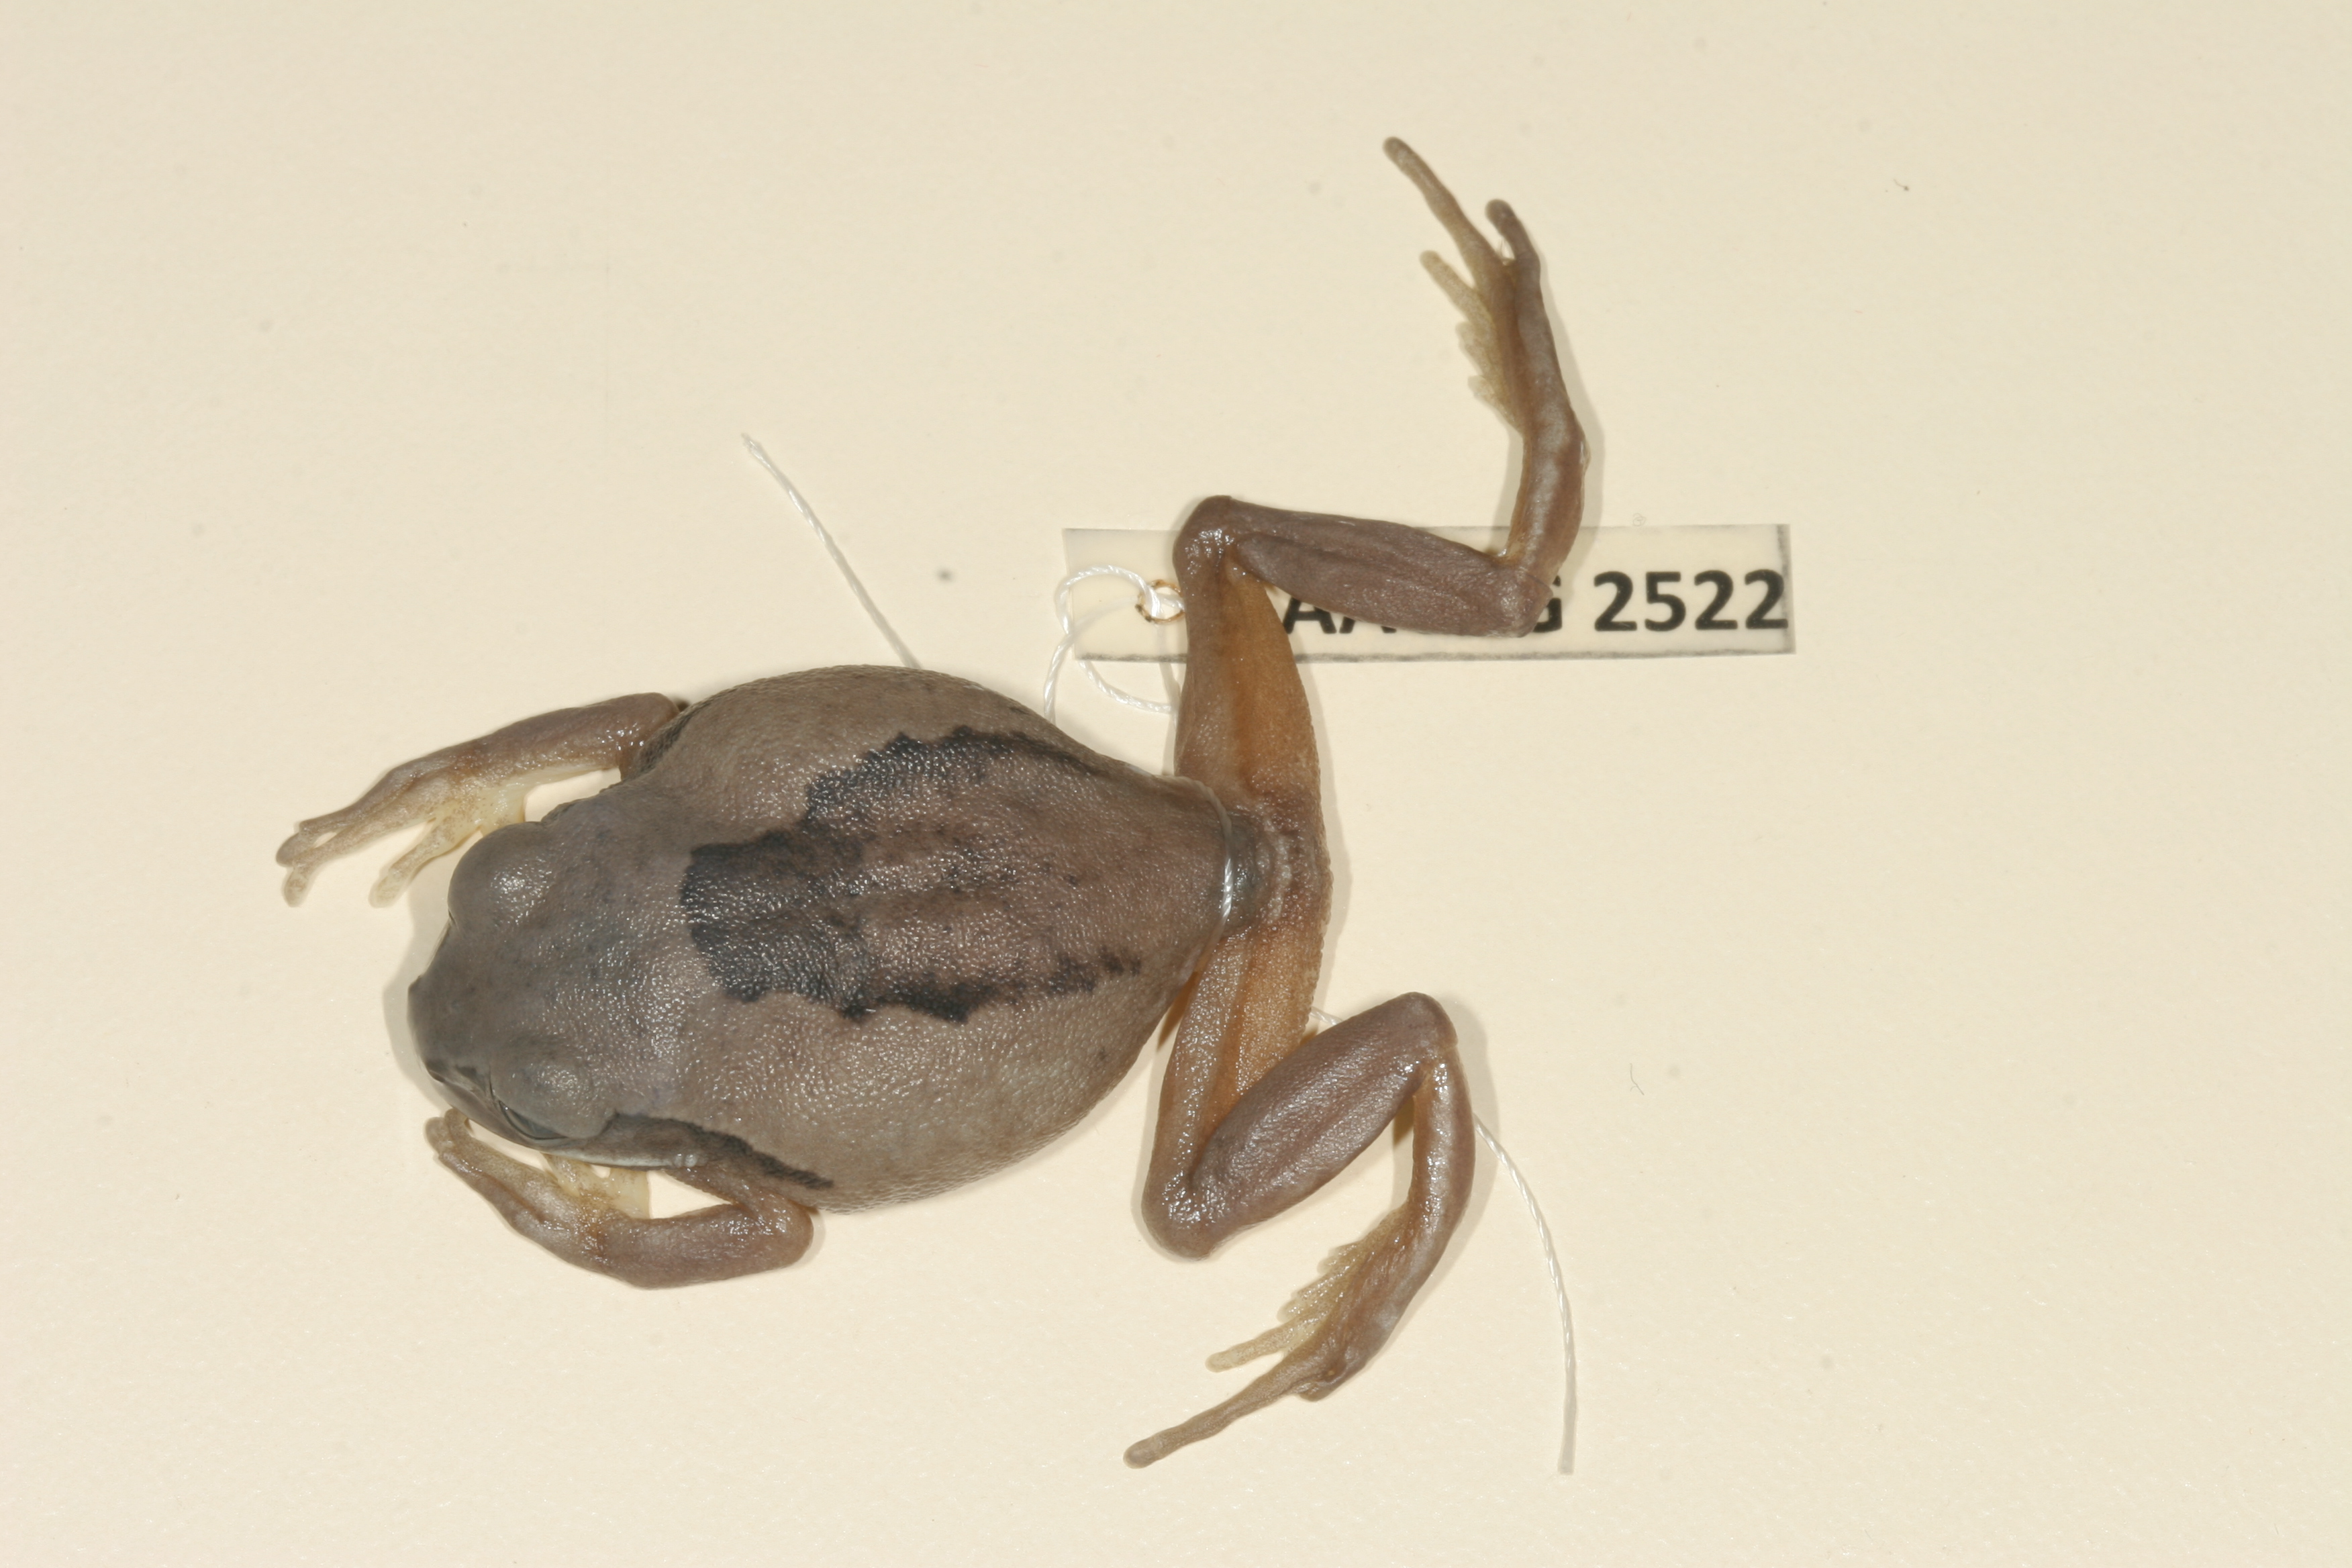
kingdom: Animalia
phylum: Chordata
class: Amphibia
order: Anura
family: Arthroleptidae
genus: Leptopelis
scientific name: Leptopelis mossambicus
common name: Mozambique tree frog
